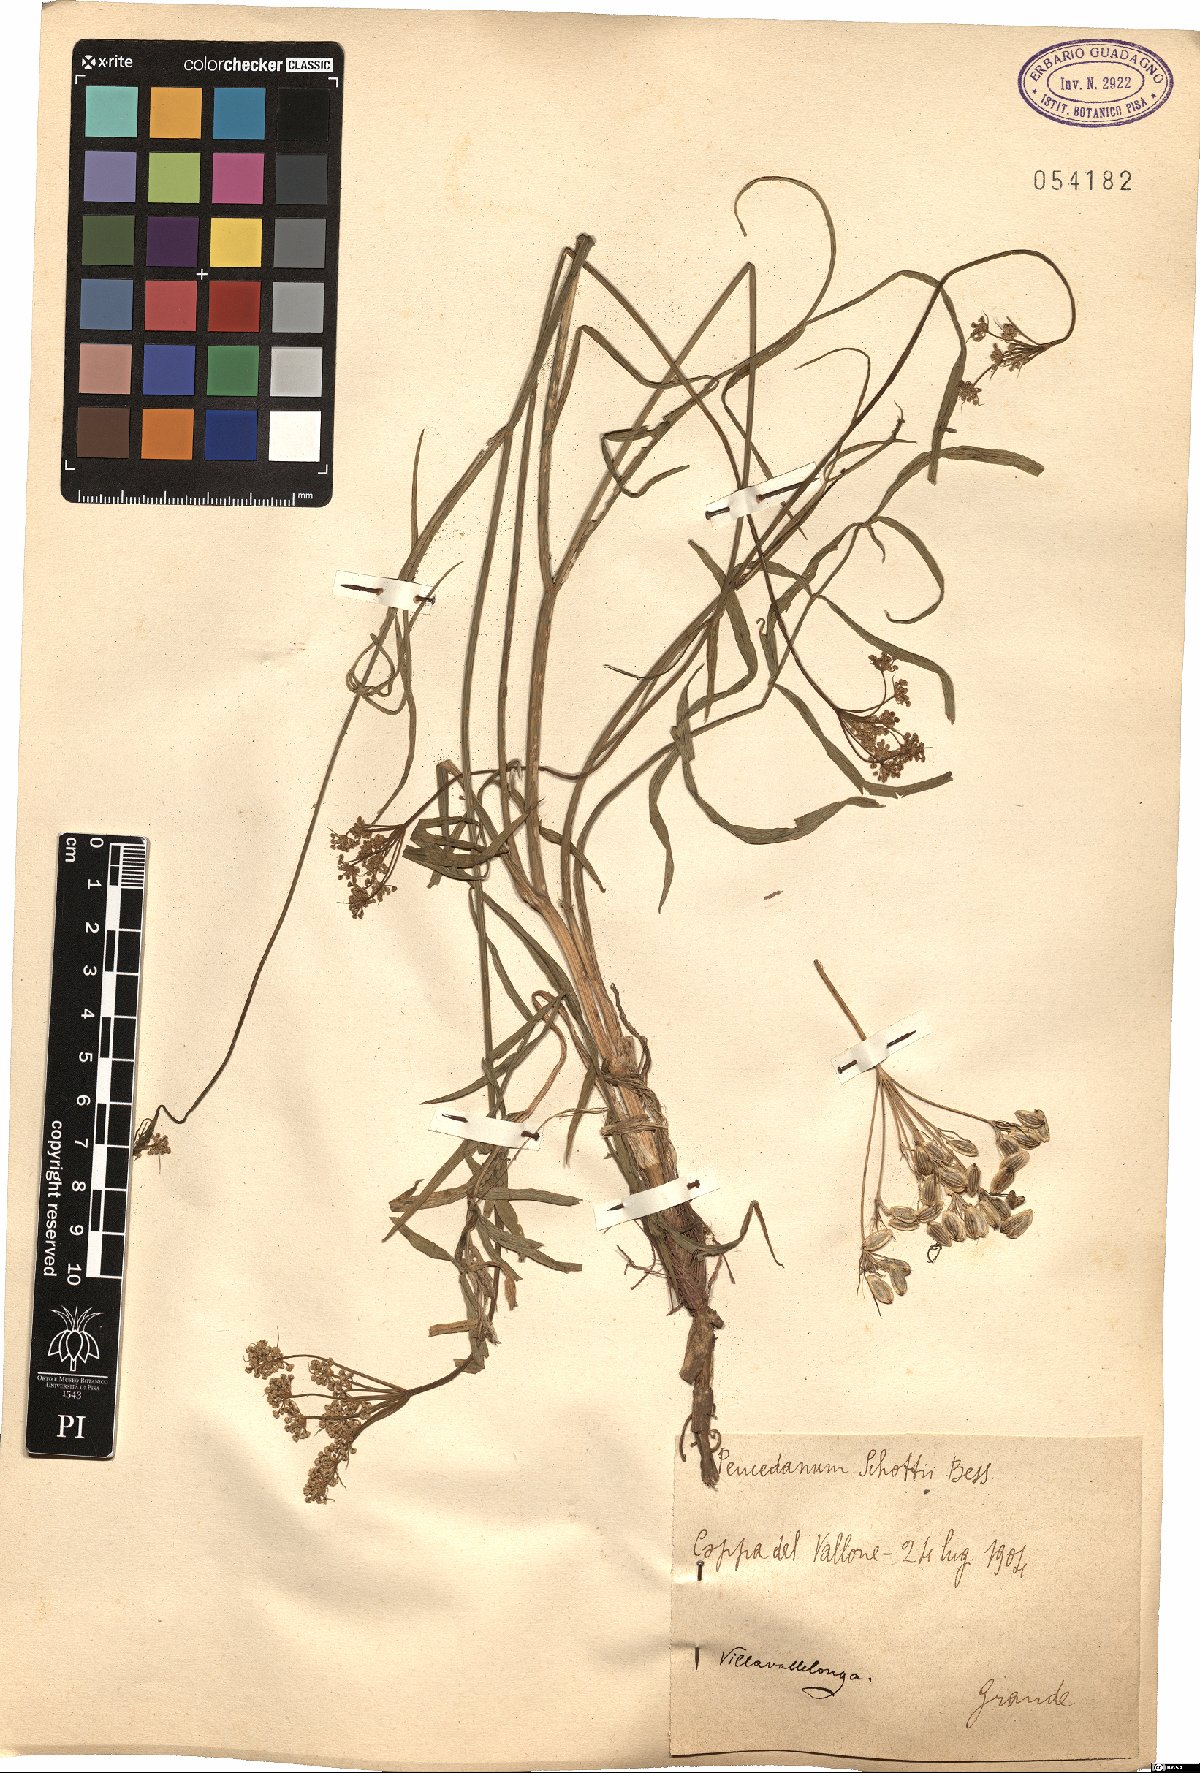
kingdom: Plantae
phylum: Tracheophyta
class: Magnoliopsida
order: Apiales
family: Apiaceae
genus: Dichoropetalum
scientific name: Dichoropetalum schottii
